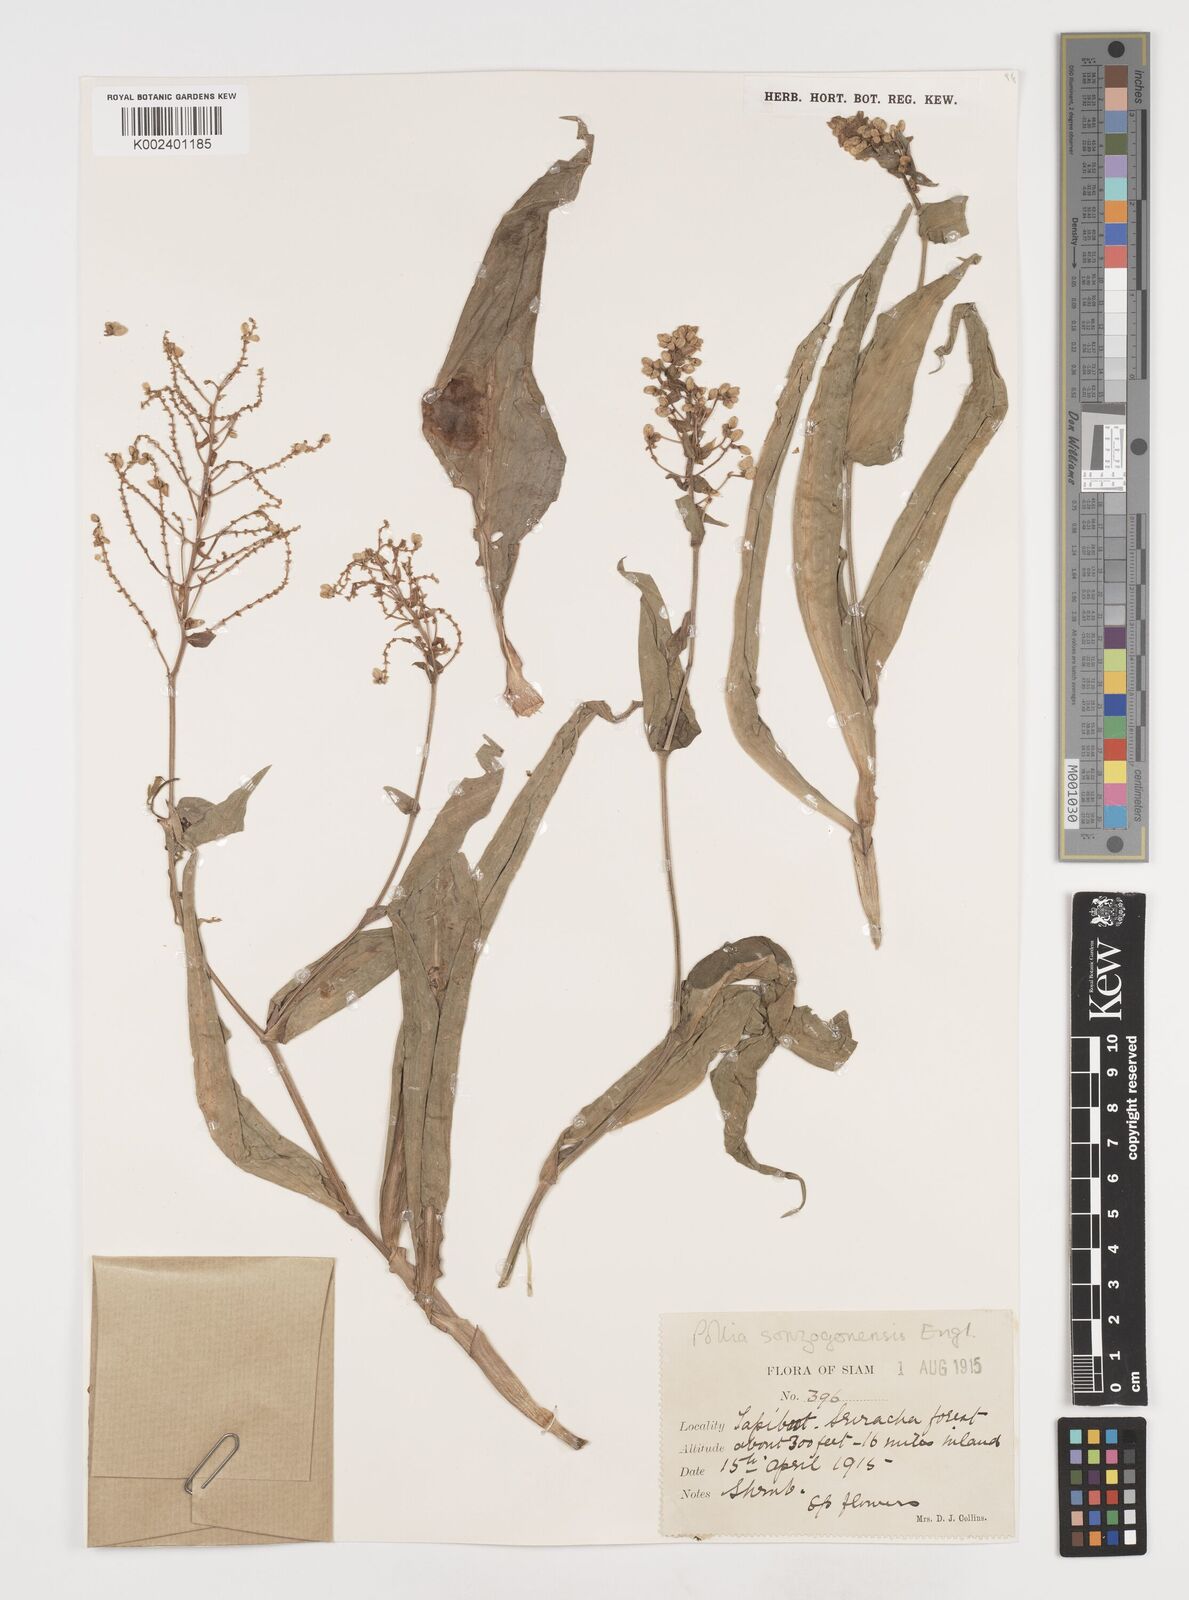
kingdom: Plantae
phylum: Tracheophyta
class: Liliopsida
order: Commelinales
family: Commelinaceae
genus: Pollia
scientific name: Pollia secundiflora
